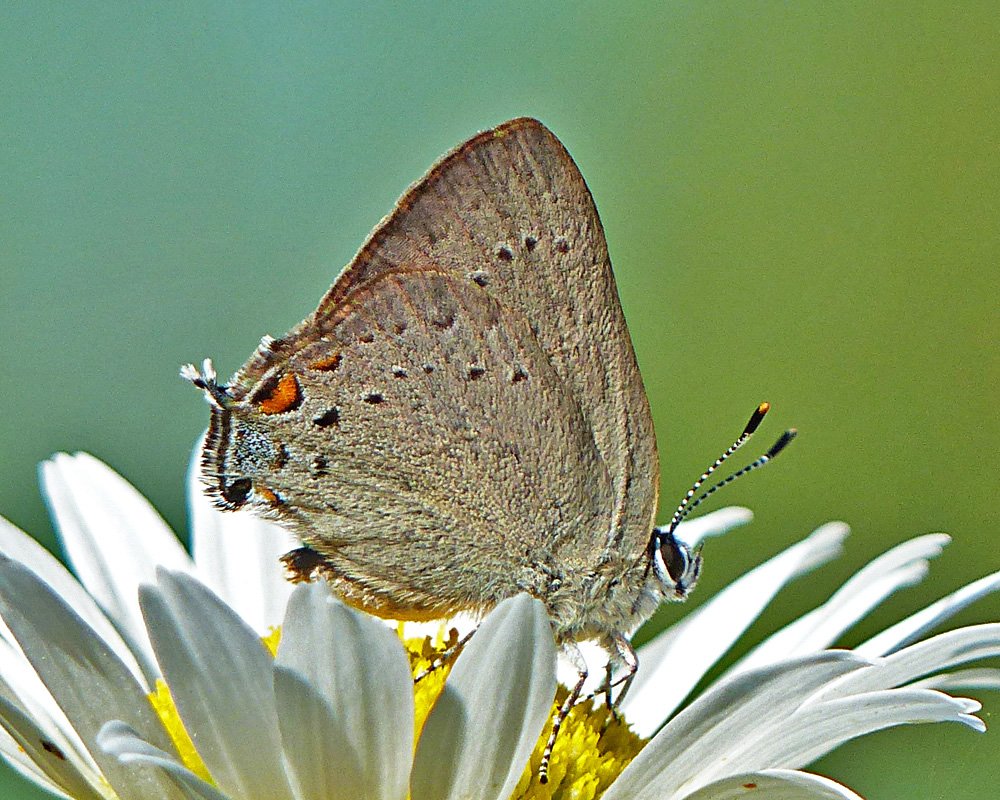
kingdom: Animalia
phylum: Arthropoda
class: Insecta
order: Lepidoptera
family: Lycaenidae
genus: Strymon
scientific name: Strymon sylvinus
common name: Sylvan Hairstreak
